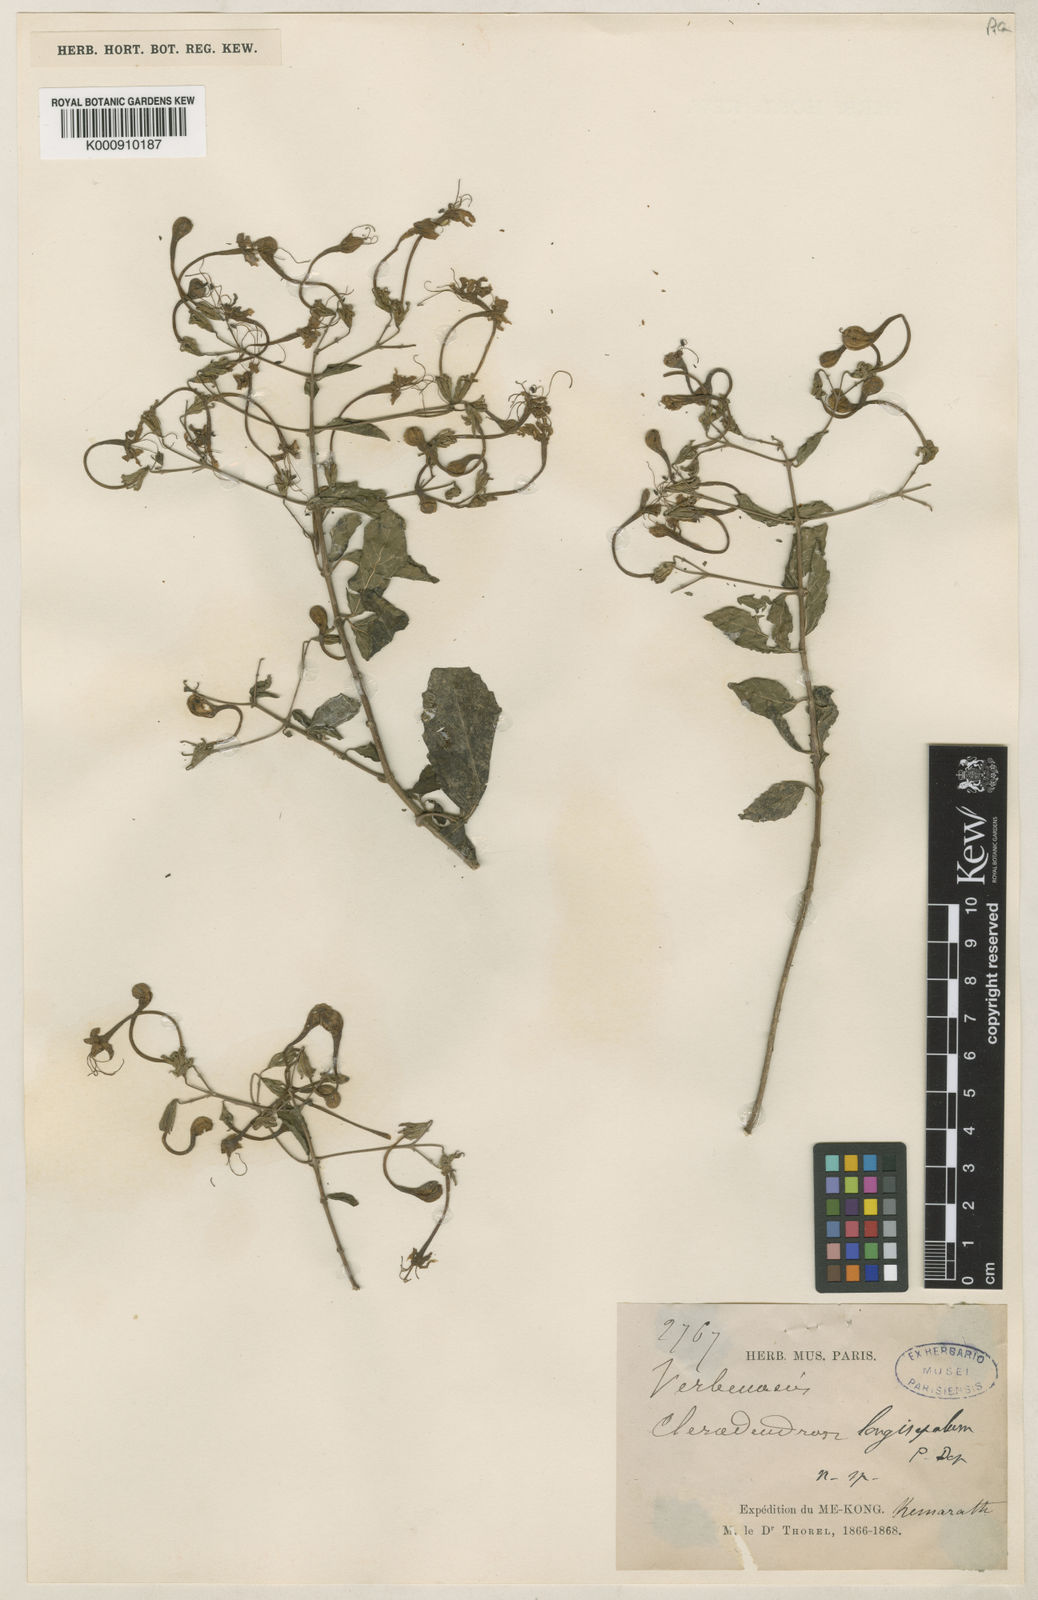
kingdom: Plantae
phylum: Tracheophyta
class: Magnoliopsida
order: Lamiales
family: Lamiaceae
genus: Clerodendrum
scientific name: Clerodendrum longisepalum
